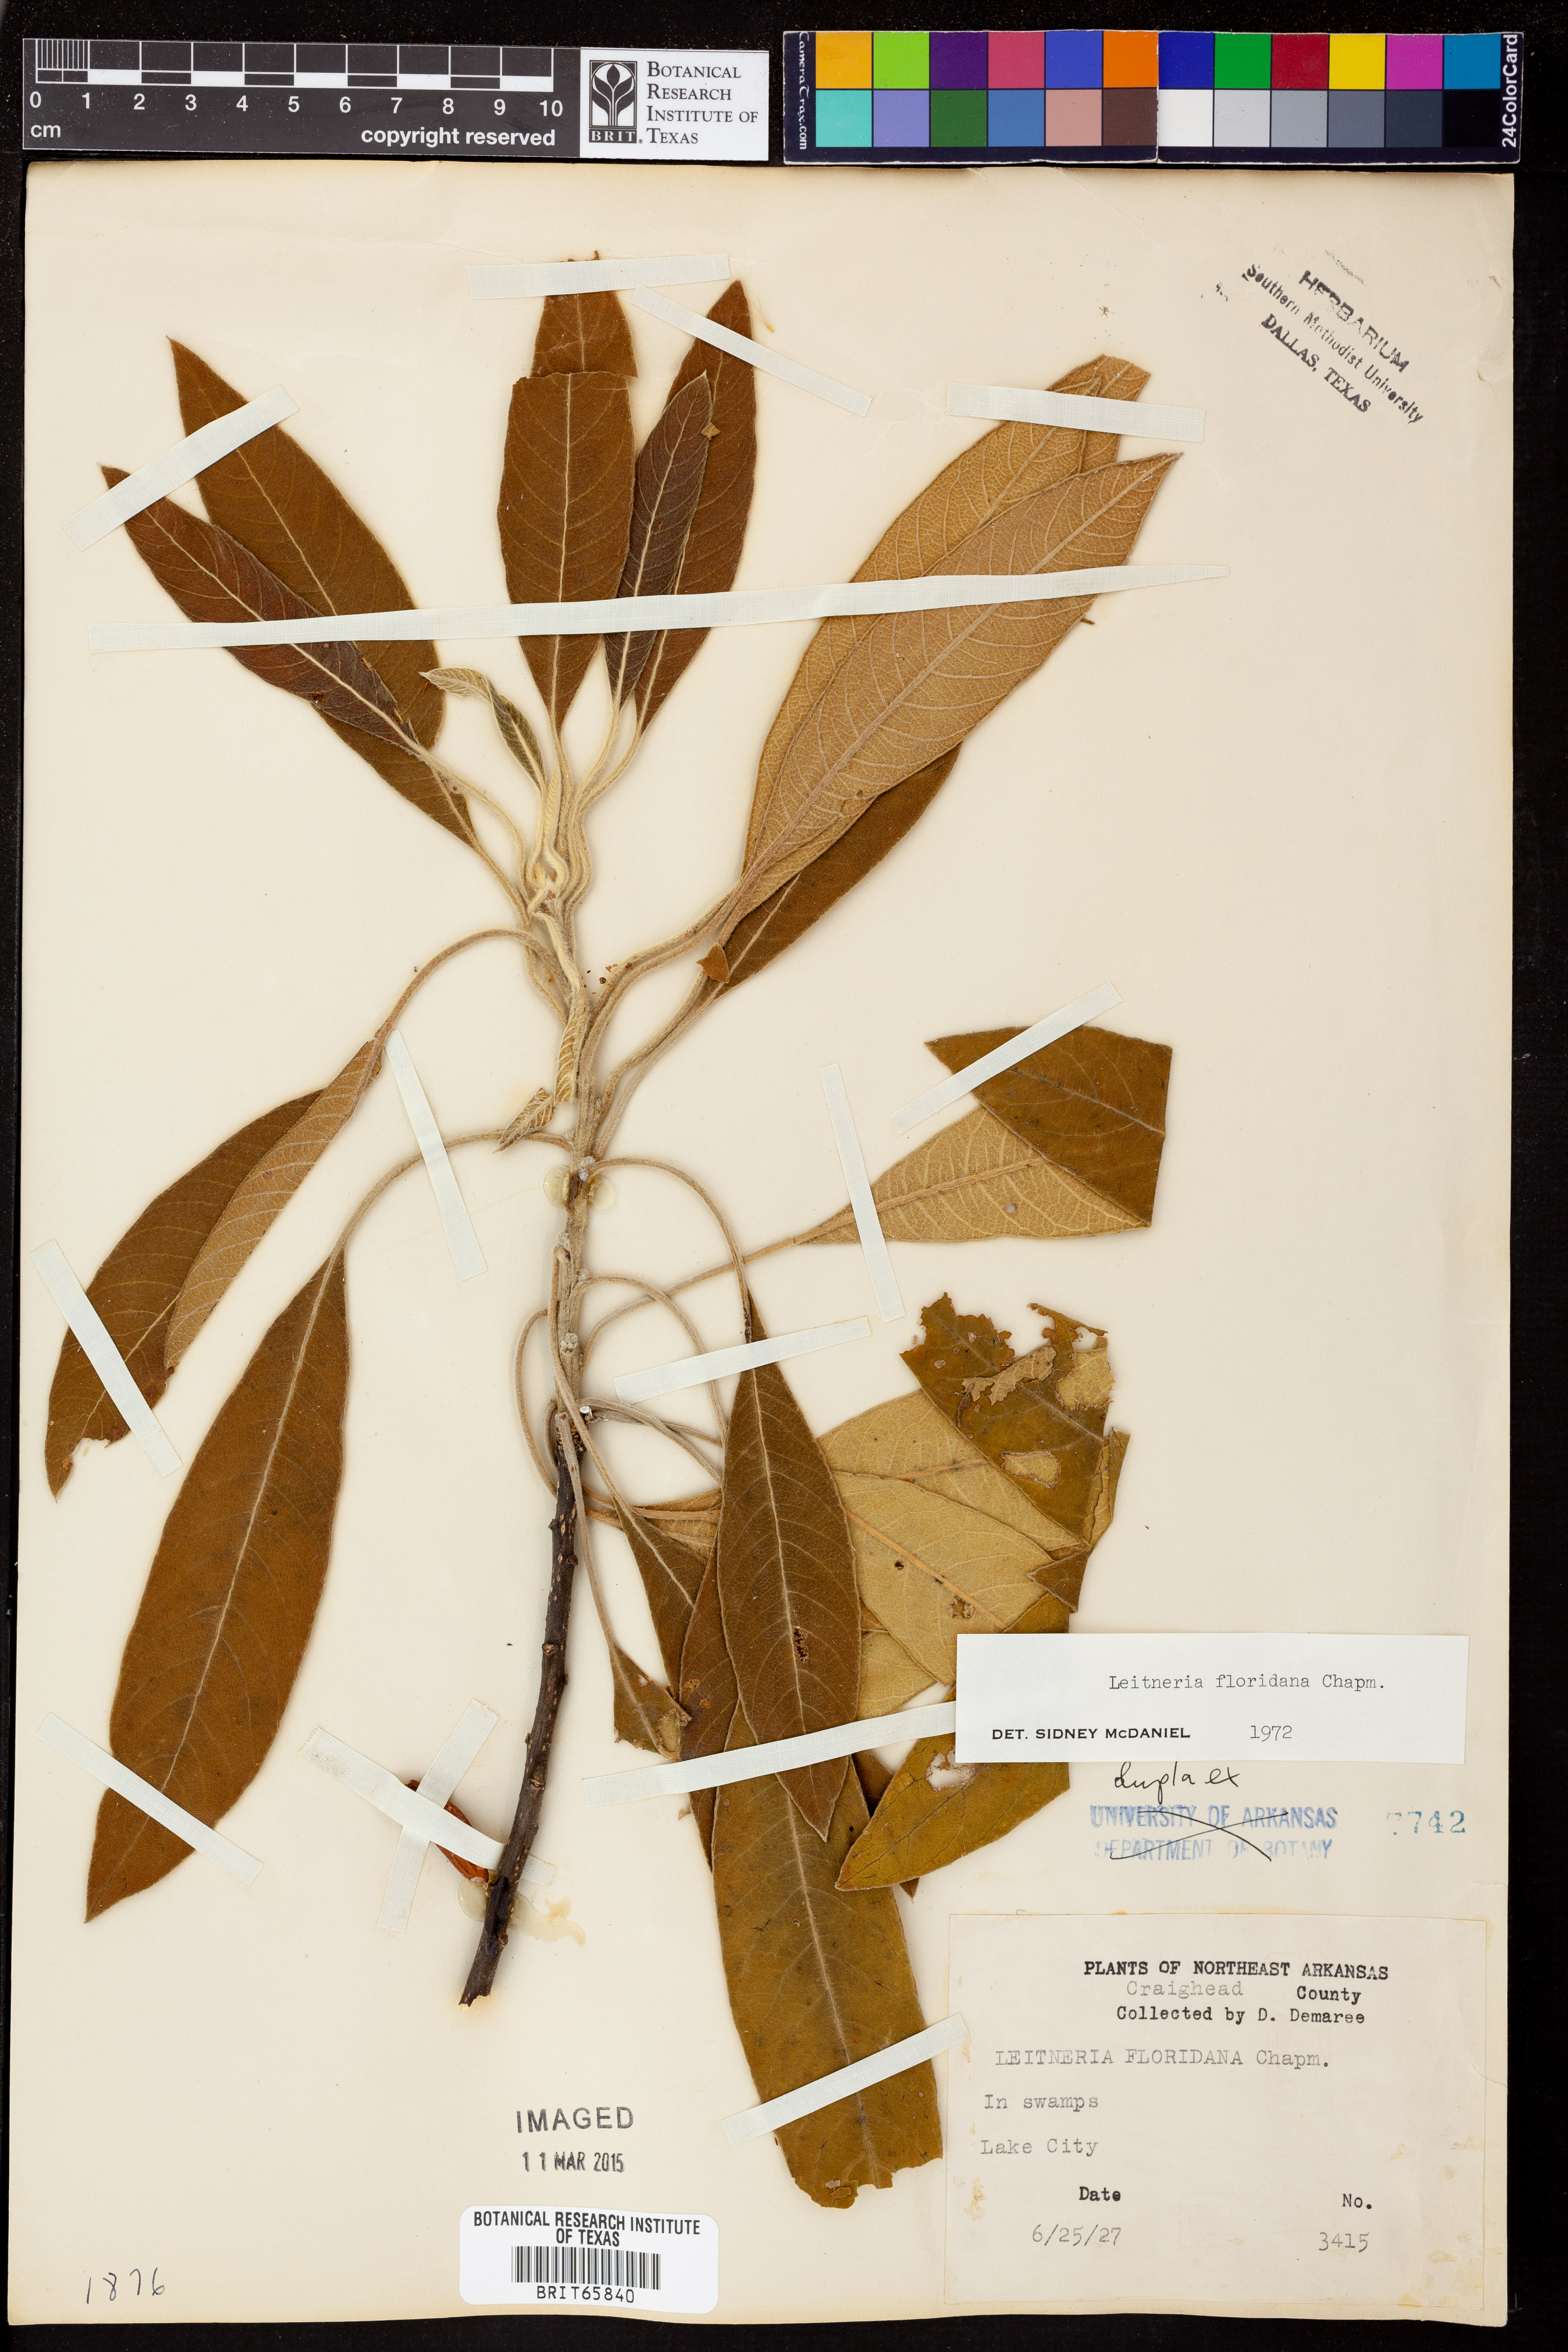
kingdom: Plantae
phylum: Tracheophyta
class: Magnoliopsida
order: Sapindales
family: Simaroubaceae
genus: Leitneria
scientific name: Leitneria floridana
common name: Corkwood
